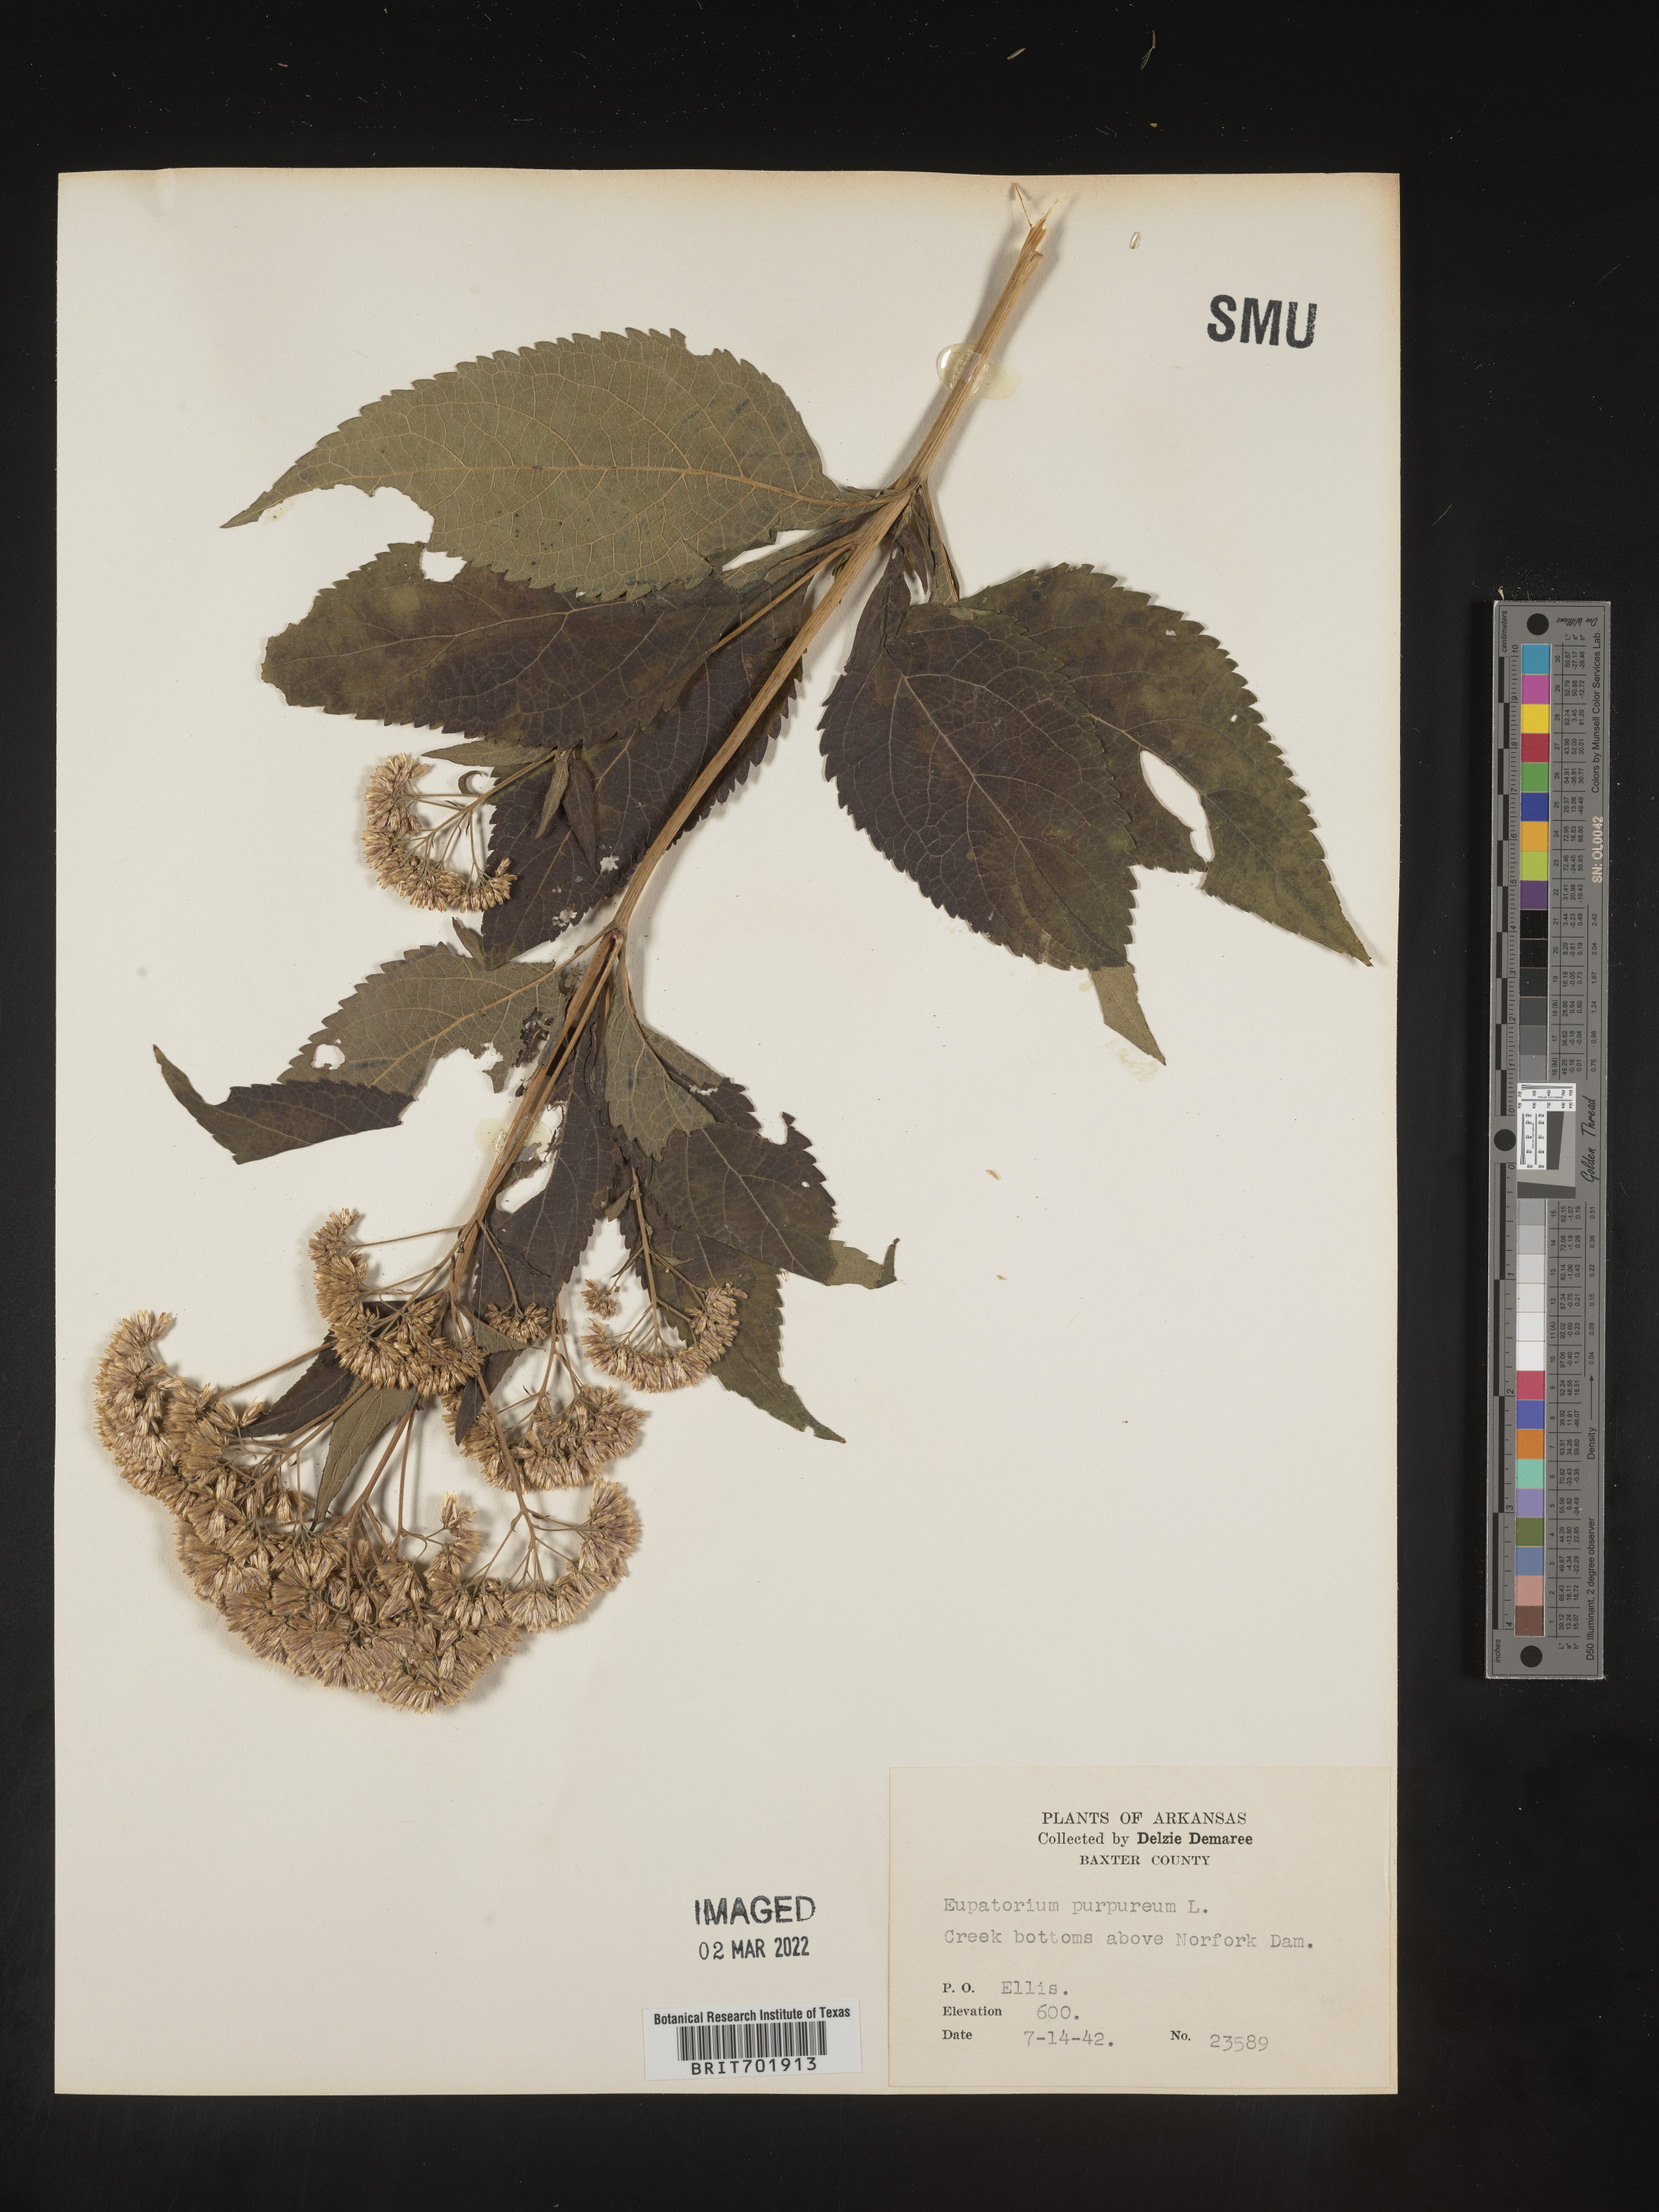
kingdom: Plantae
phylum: Tracheophyta
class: Magnoliopsida
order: Asterales
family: Asteraceae
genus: Eupatorium
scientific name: Eupatorium quaternum
